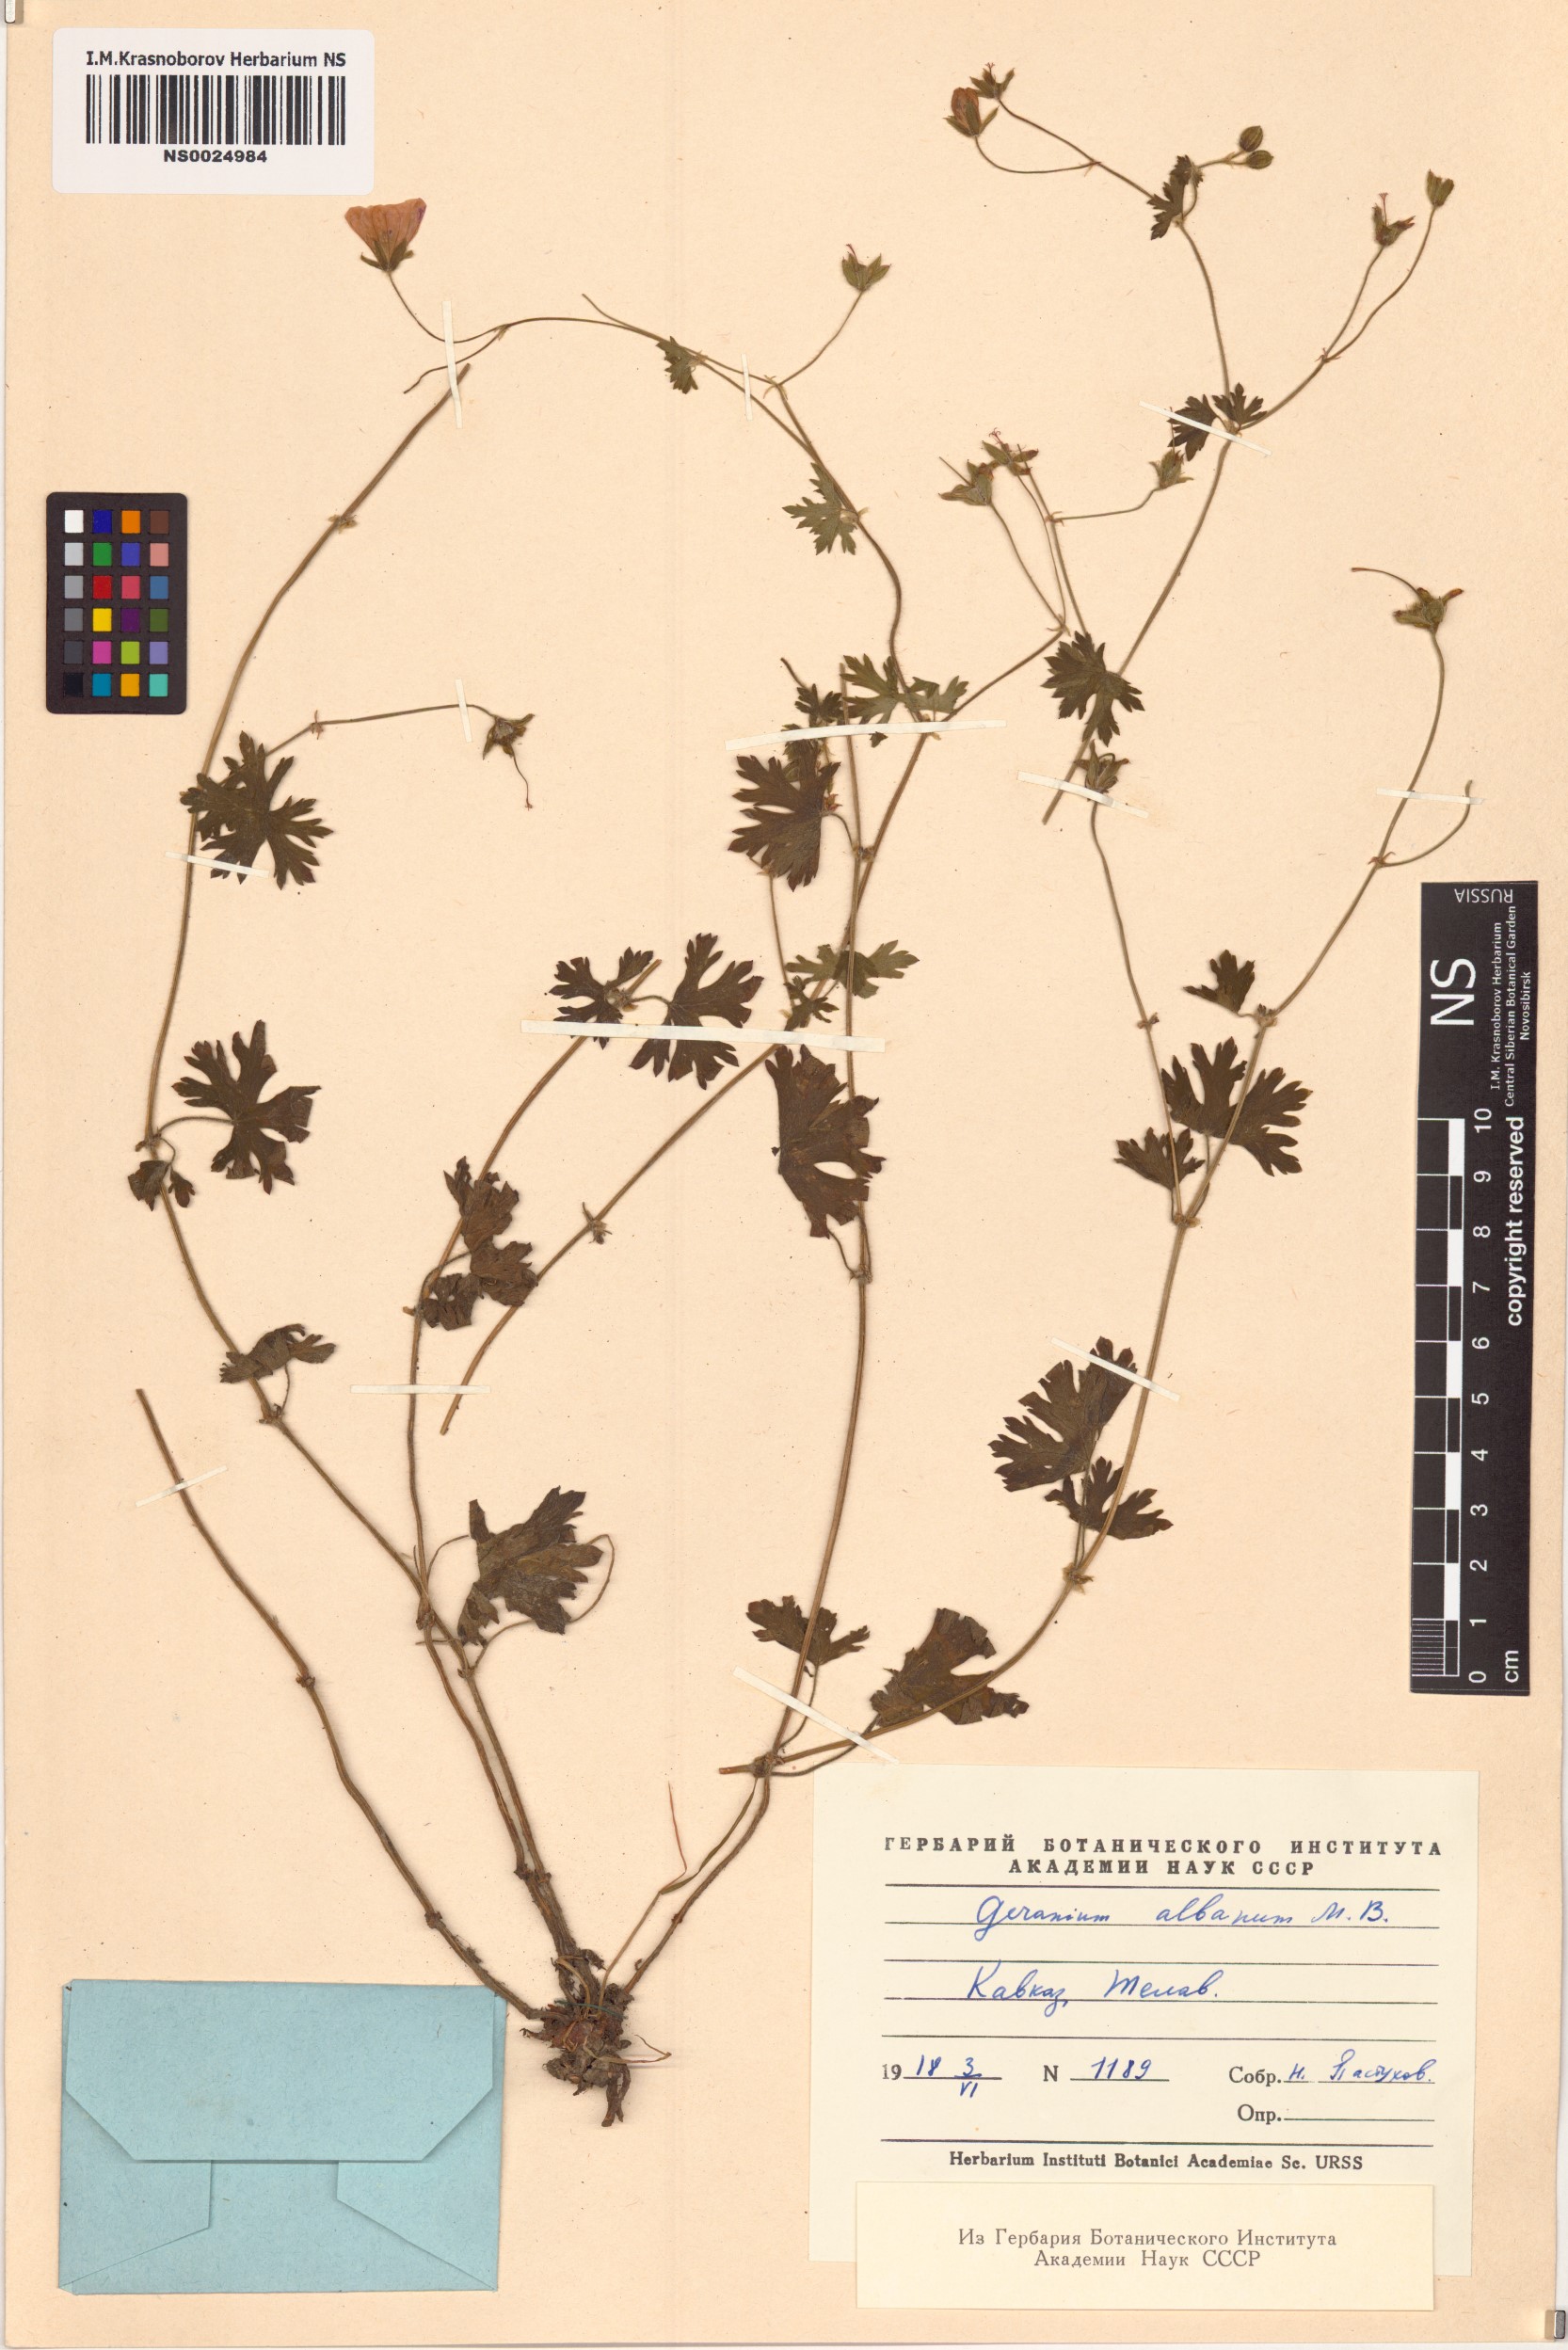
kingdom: Plantae
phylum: Tracheophyta
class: Magnoliopsida
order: Geraniales
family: Geraniaceae
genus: Geranium
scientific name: Geranium albanum
